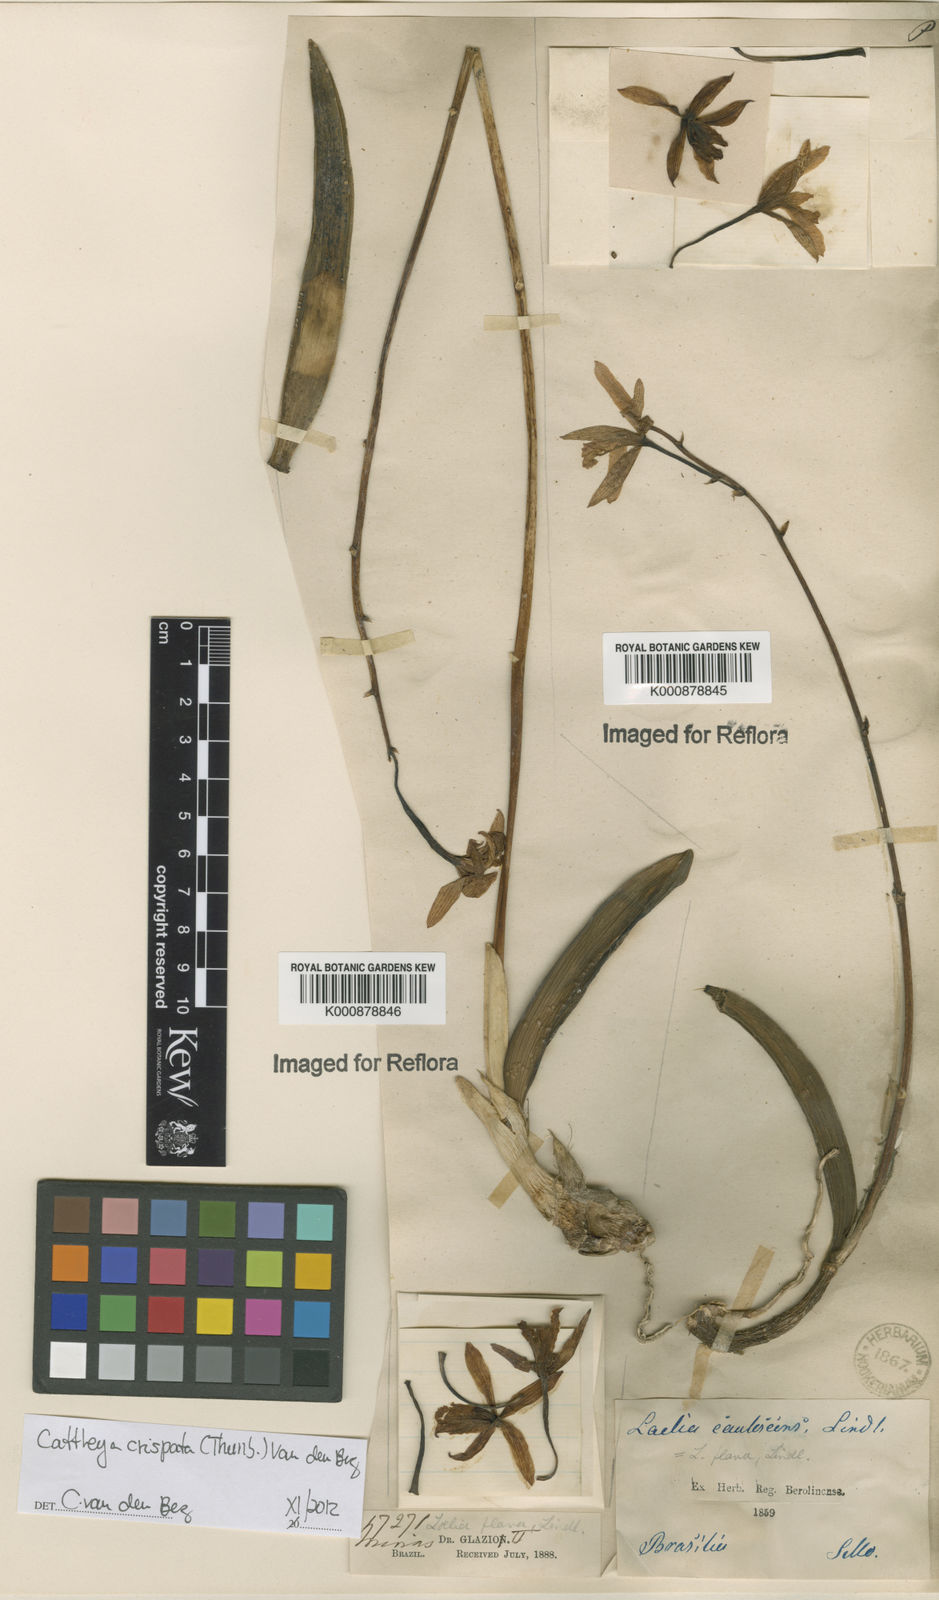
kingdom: Plantae
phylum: Tracheophyta
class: Liliopsida
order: Asparagales
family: Orchidaceae
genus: Cattleya
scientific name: Cattleya crispata
